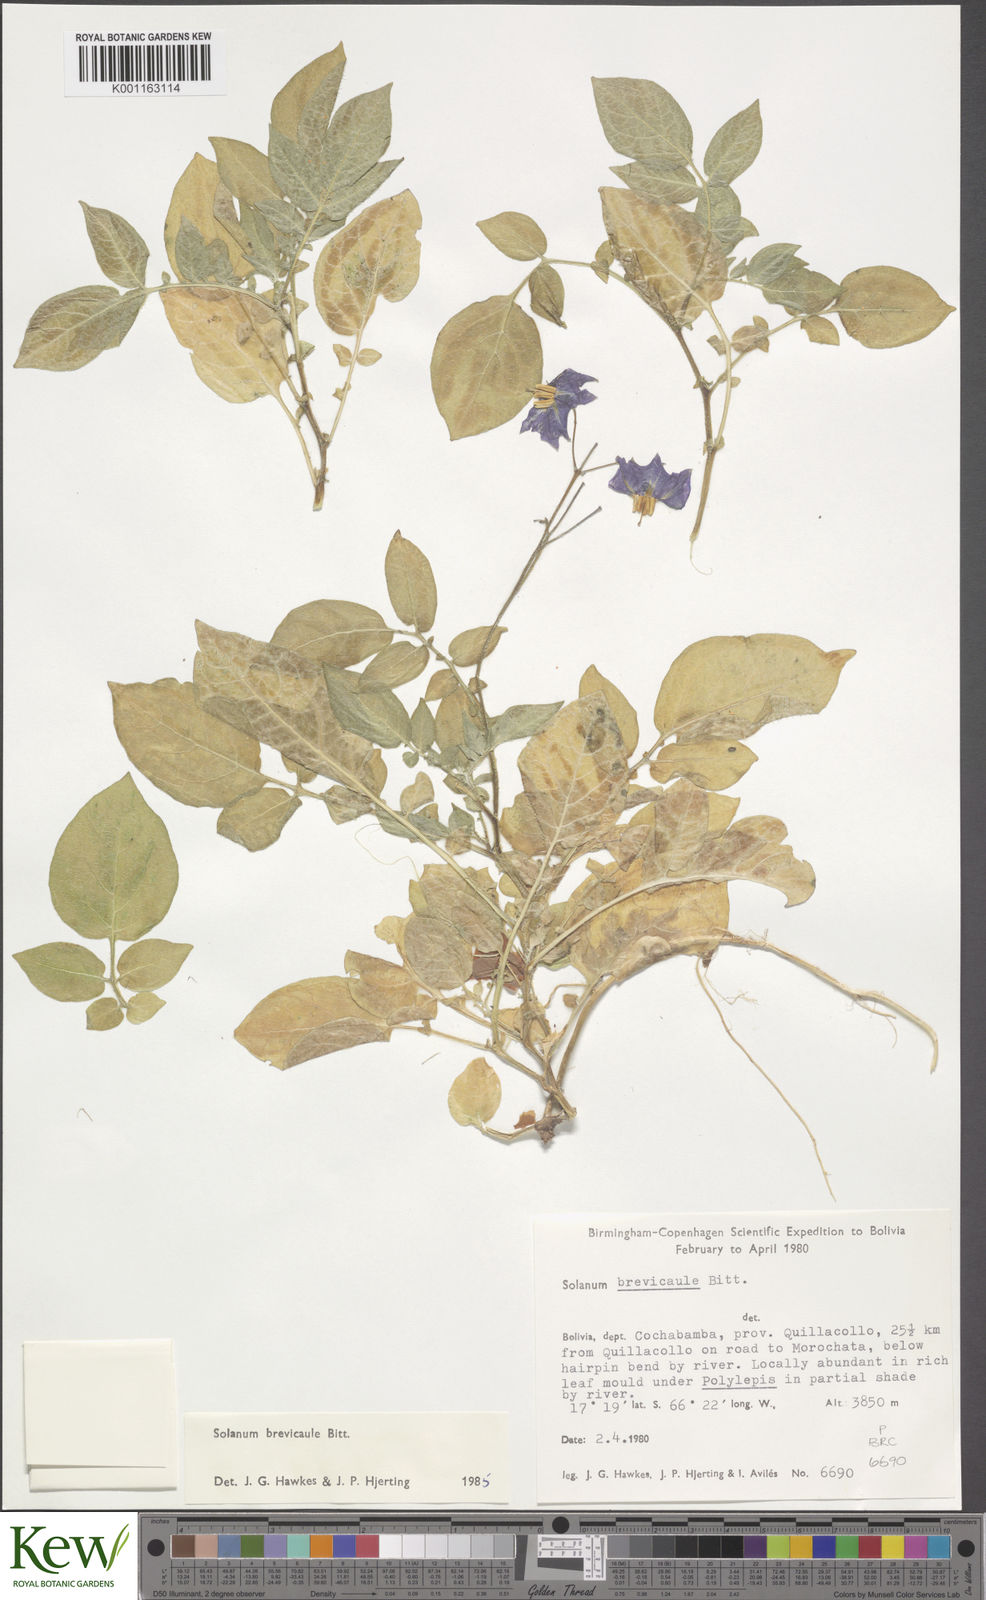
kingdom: Plantae
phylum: Tracheophyta
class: Magnoliopsida
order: Solanales
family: Solanaceae
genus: Solanum
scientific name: Solanum brevicaule
